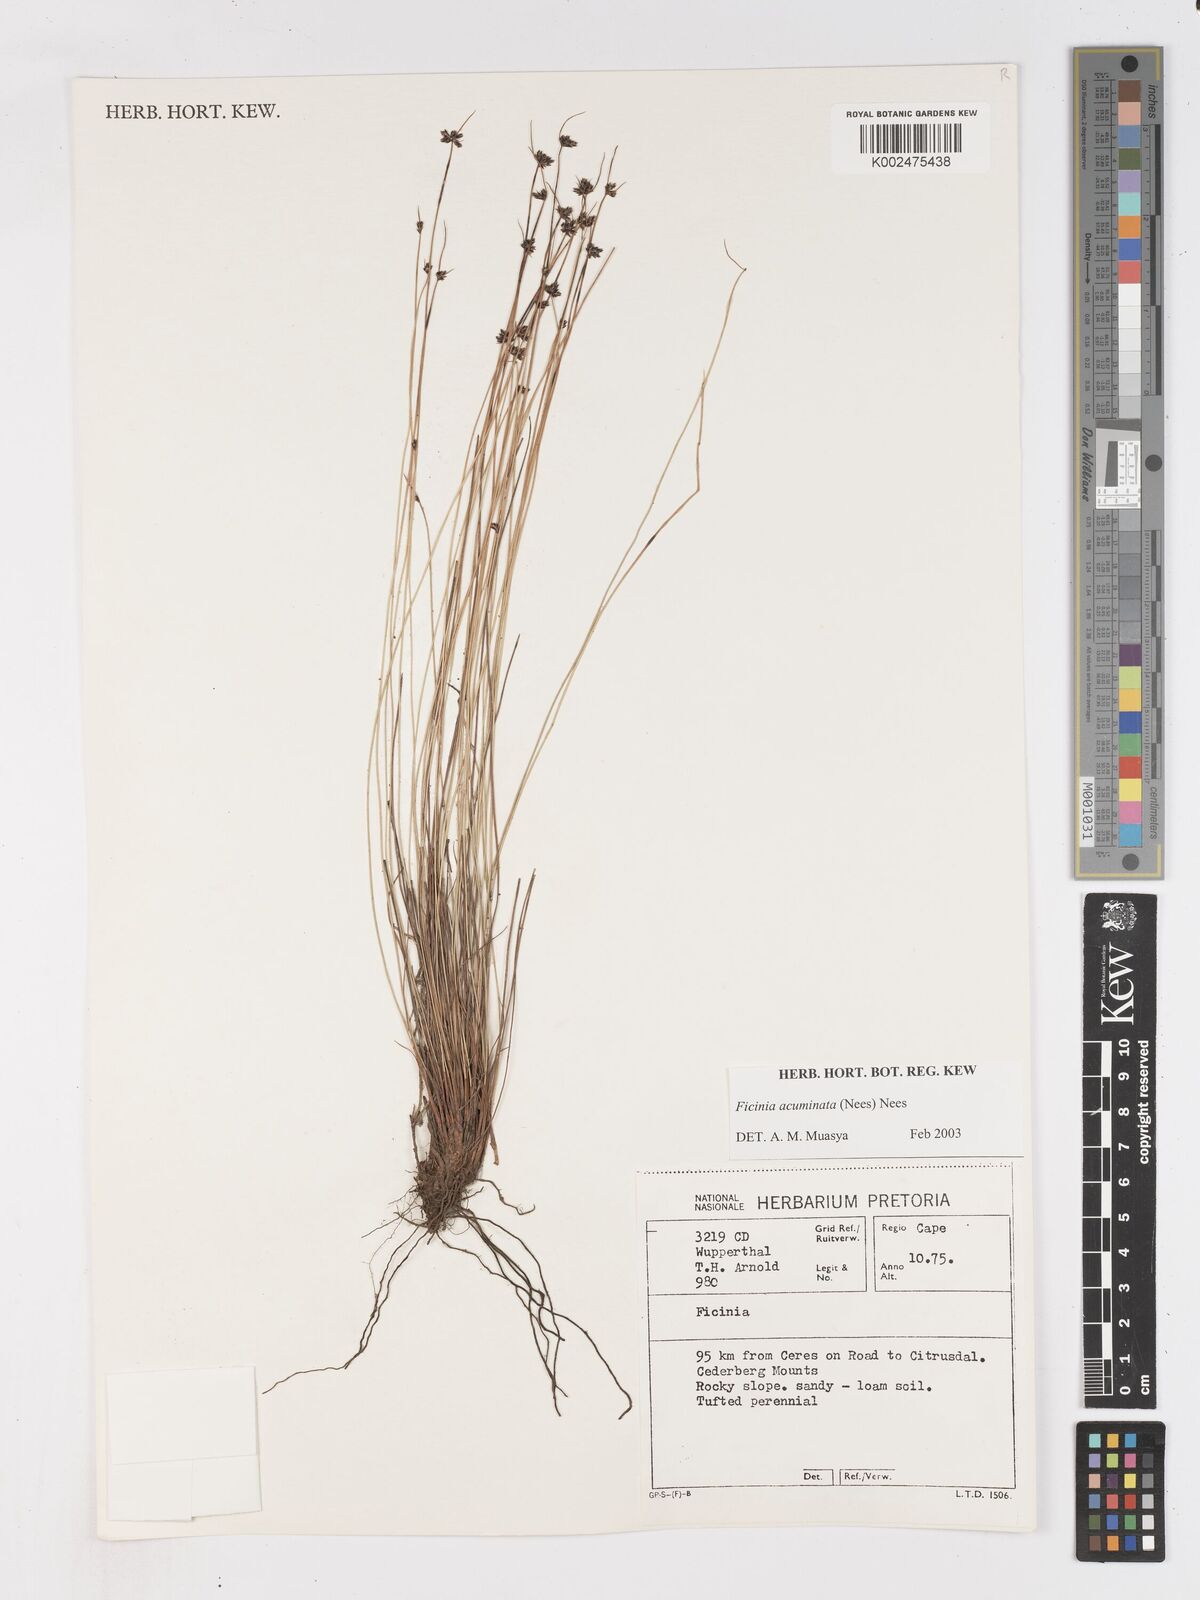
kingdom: Plantae
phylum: Tracheophyta
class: Liliopsida
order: Poales
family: Cyperaceae
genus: Ficinia
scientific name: Ficinia acuminata
